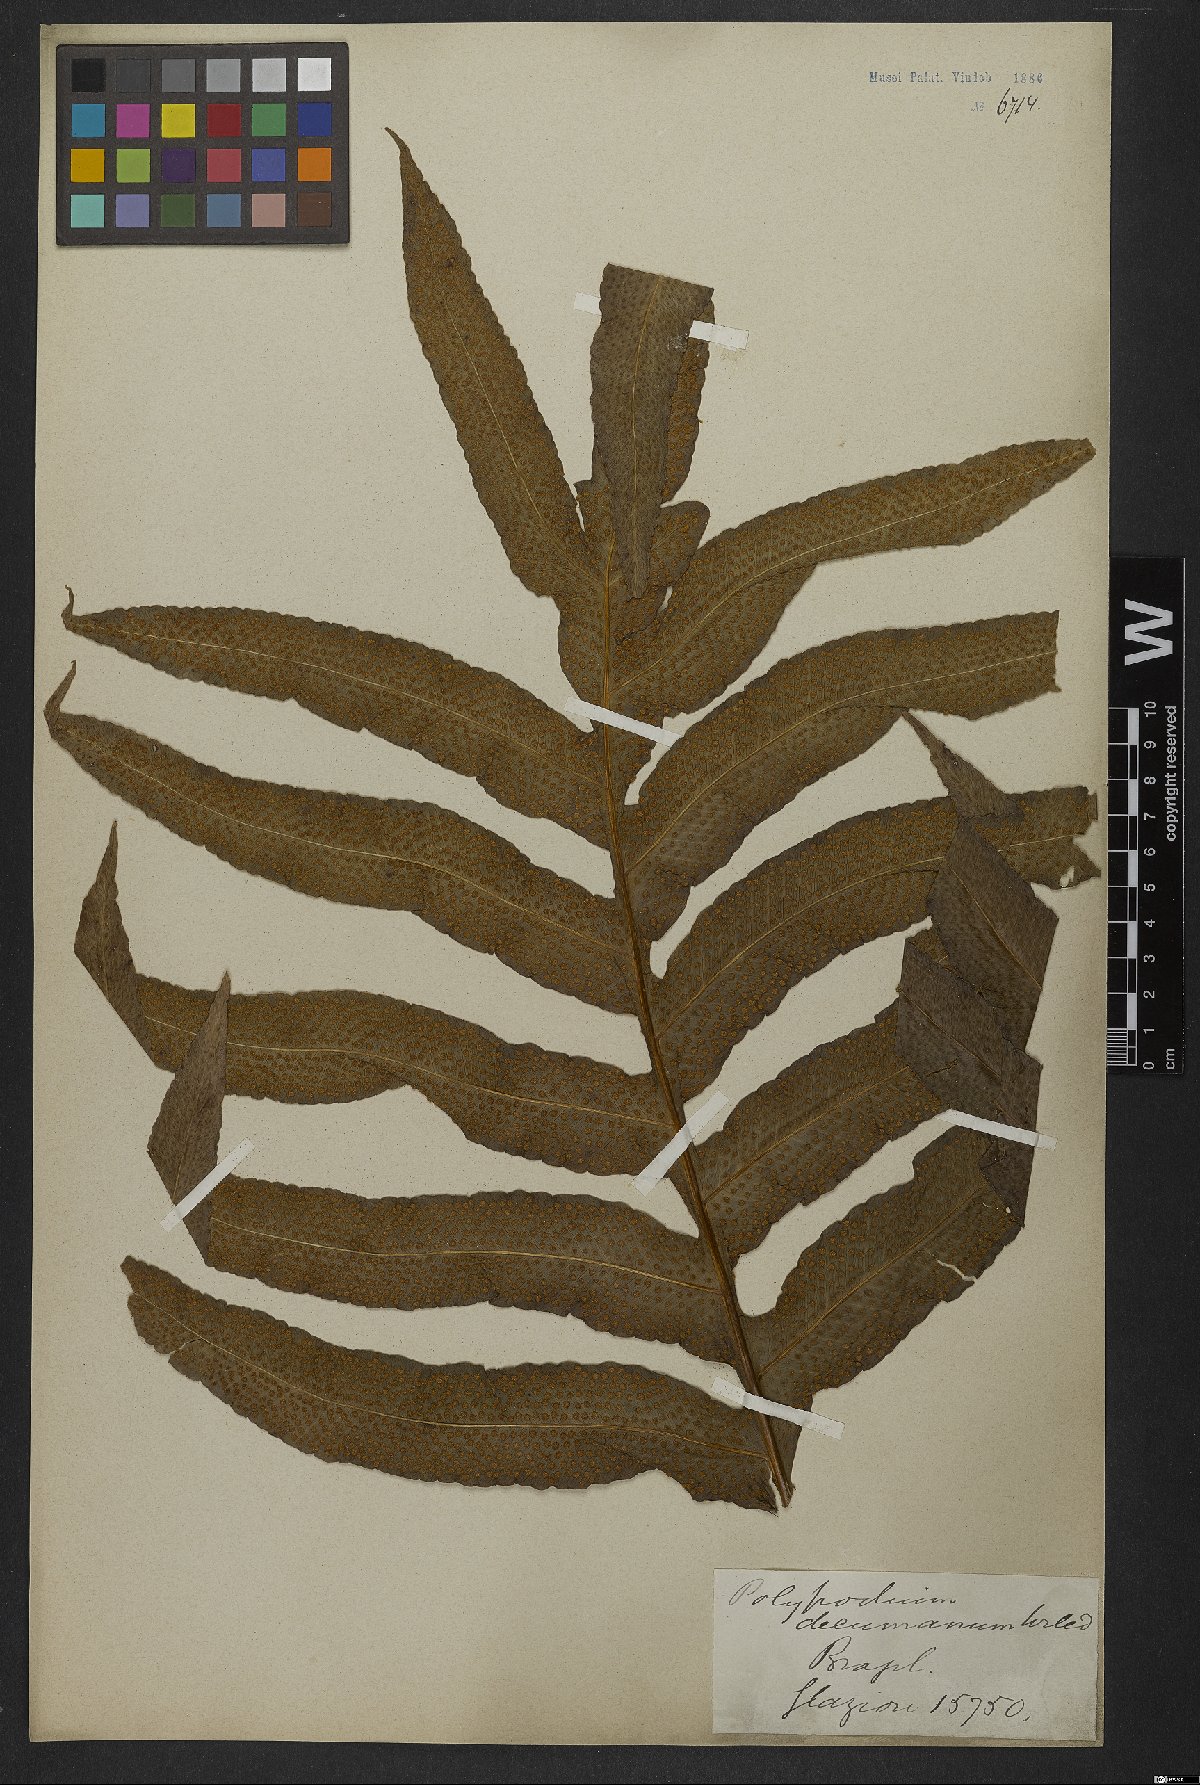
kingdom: Plantae
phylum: Tracheophyta
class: Polypodiopsida
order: Polypodiales
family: Polypodiaceae
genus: Phlebodium
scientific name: Phlebodium decumanum
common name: Golden polypod
